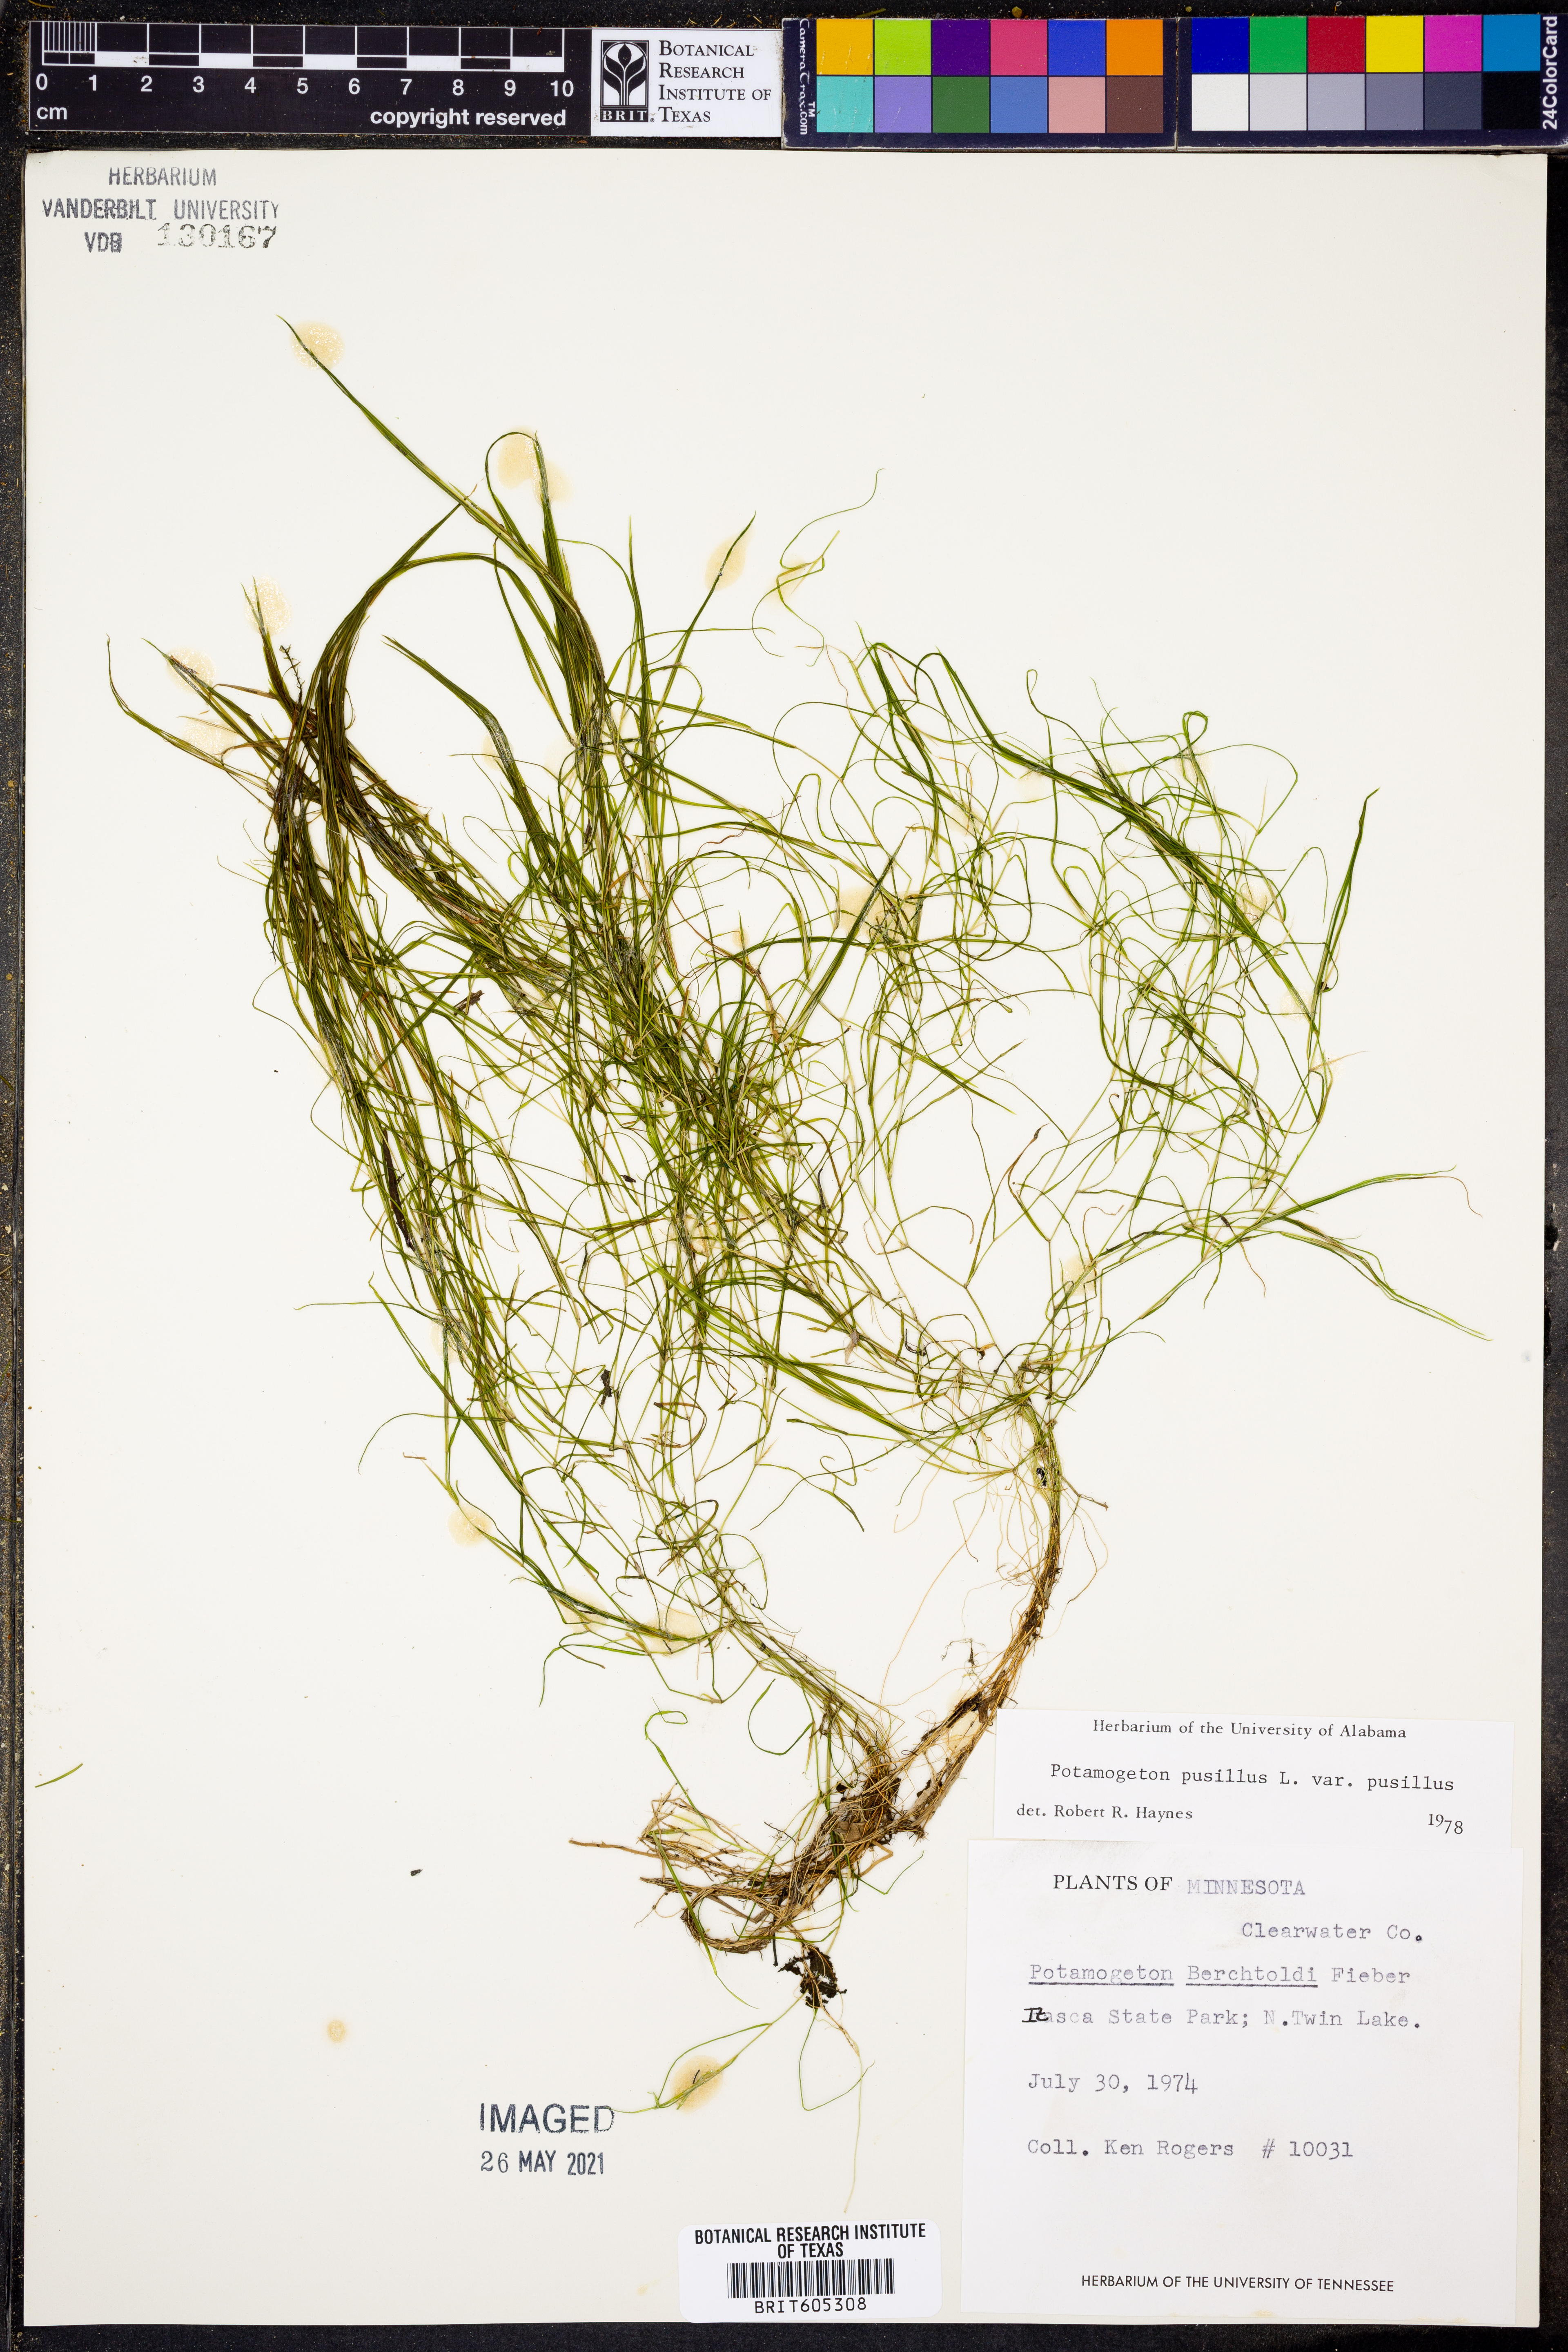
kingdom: Plantae
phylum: Tracheophyta
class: Liliopsida
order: Alismatales
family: Potamogetonaceae
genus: Potamogeton
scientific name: Potamogeton berchtoldii
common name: Small pondweed
